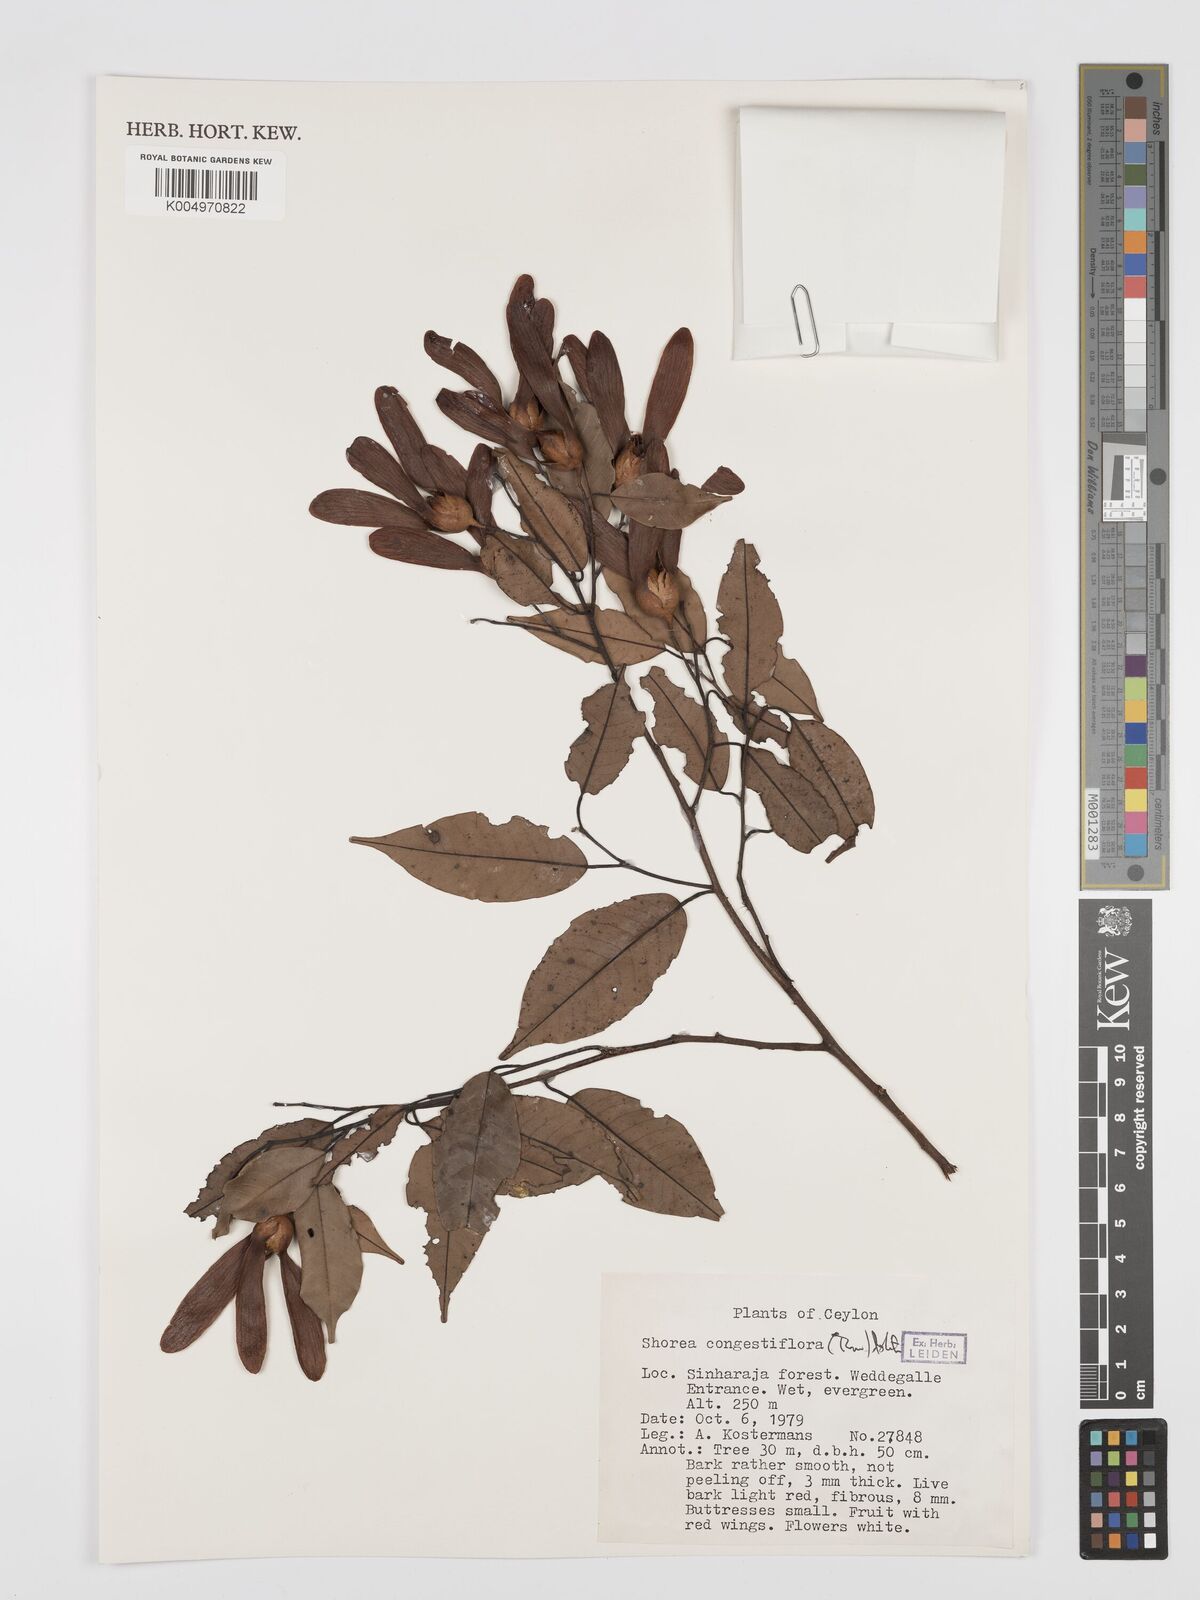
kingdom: Plantae
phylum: Tracheophyta
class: Magnoliopsida
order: Malvales
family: Dipterocarpaceae
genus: Doona
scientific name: Doona congestiflora
